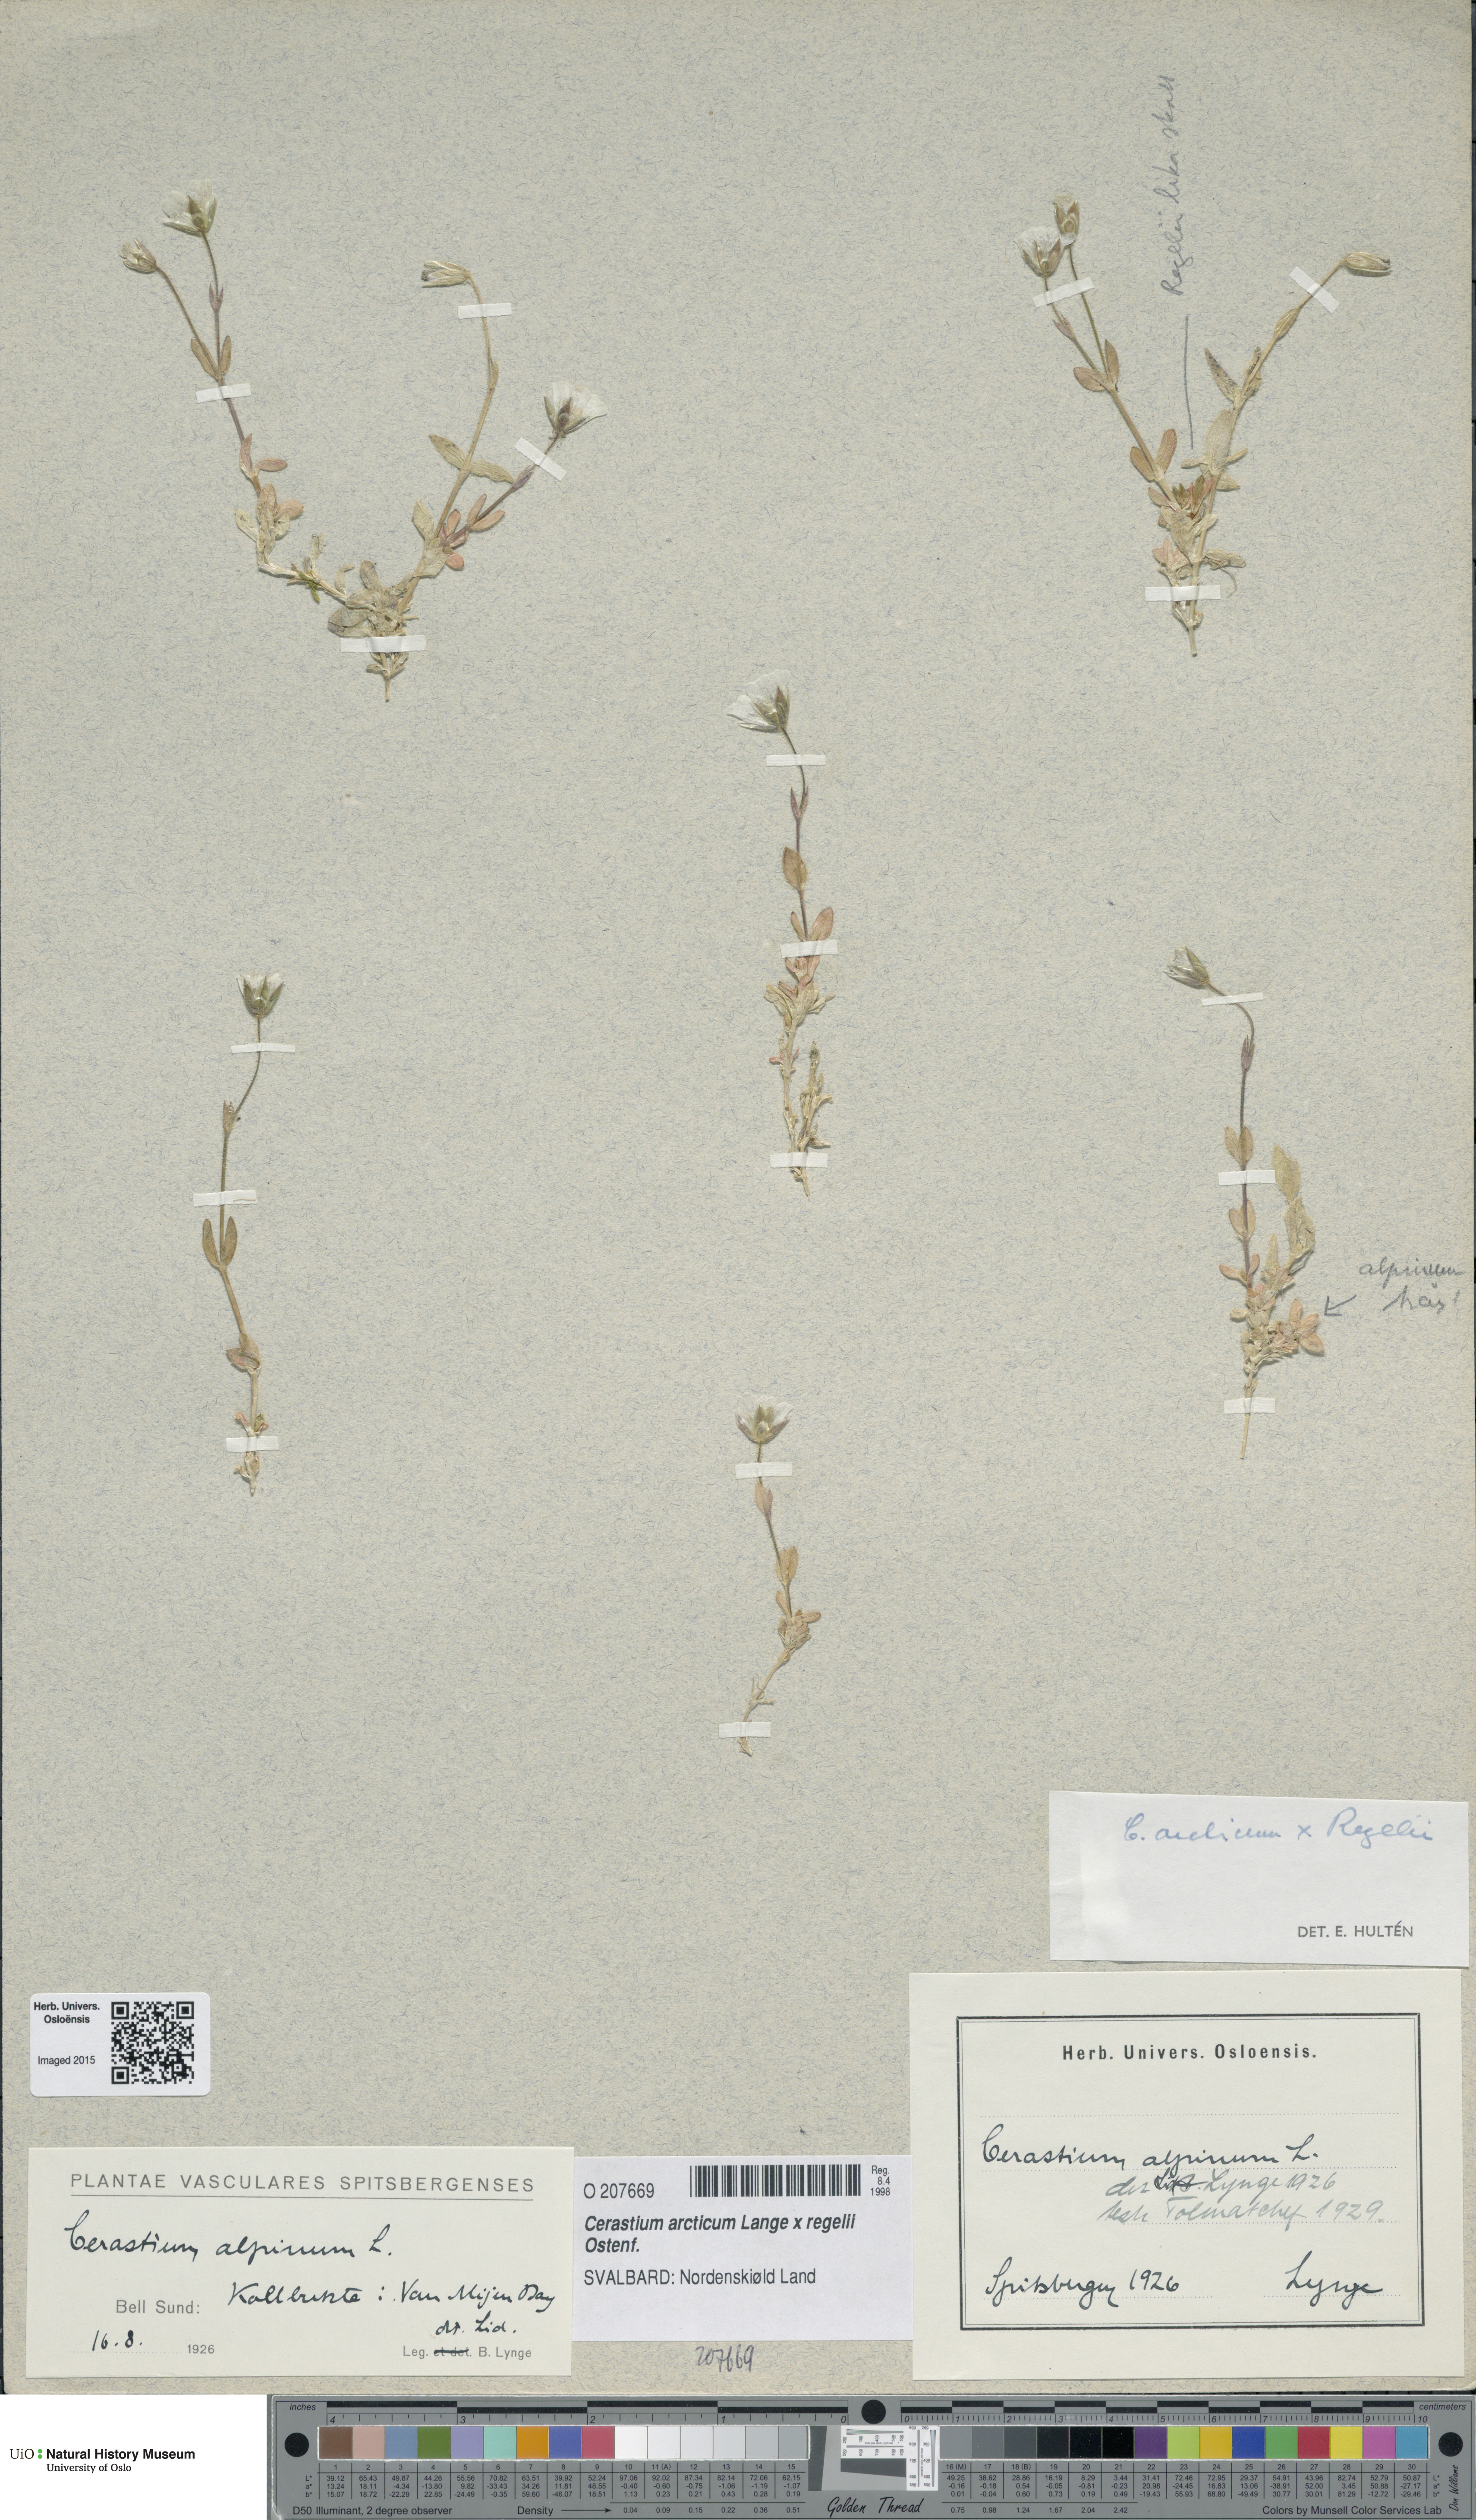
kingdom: Plantae
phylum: Tracheophyta
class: Magnoliopsida
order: Caryophyllales
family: Caryophyllaceae
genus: Cerastium
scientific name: Cerastium
